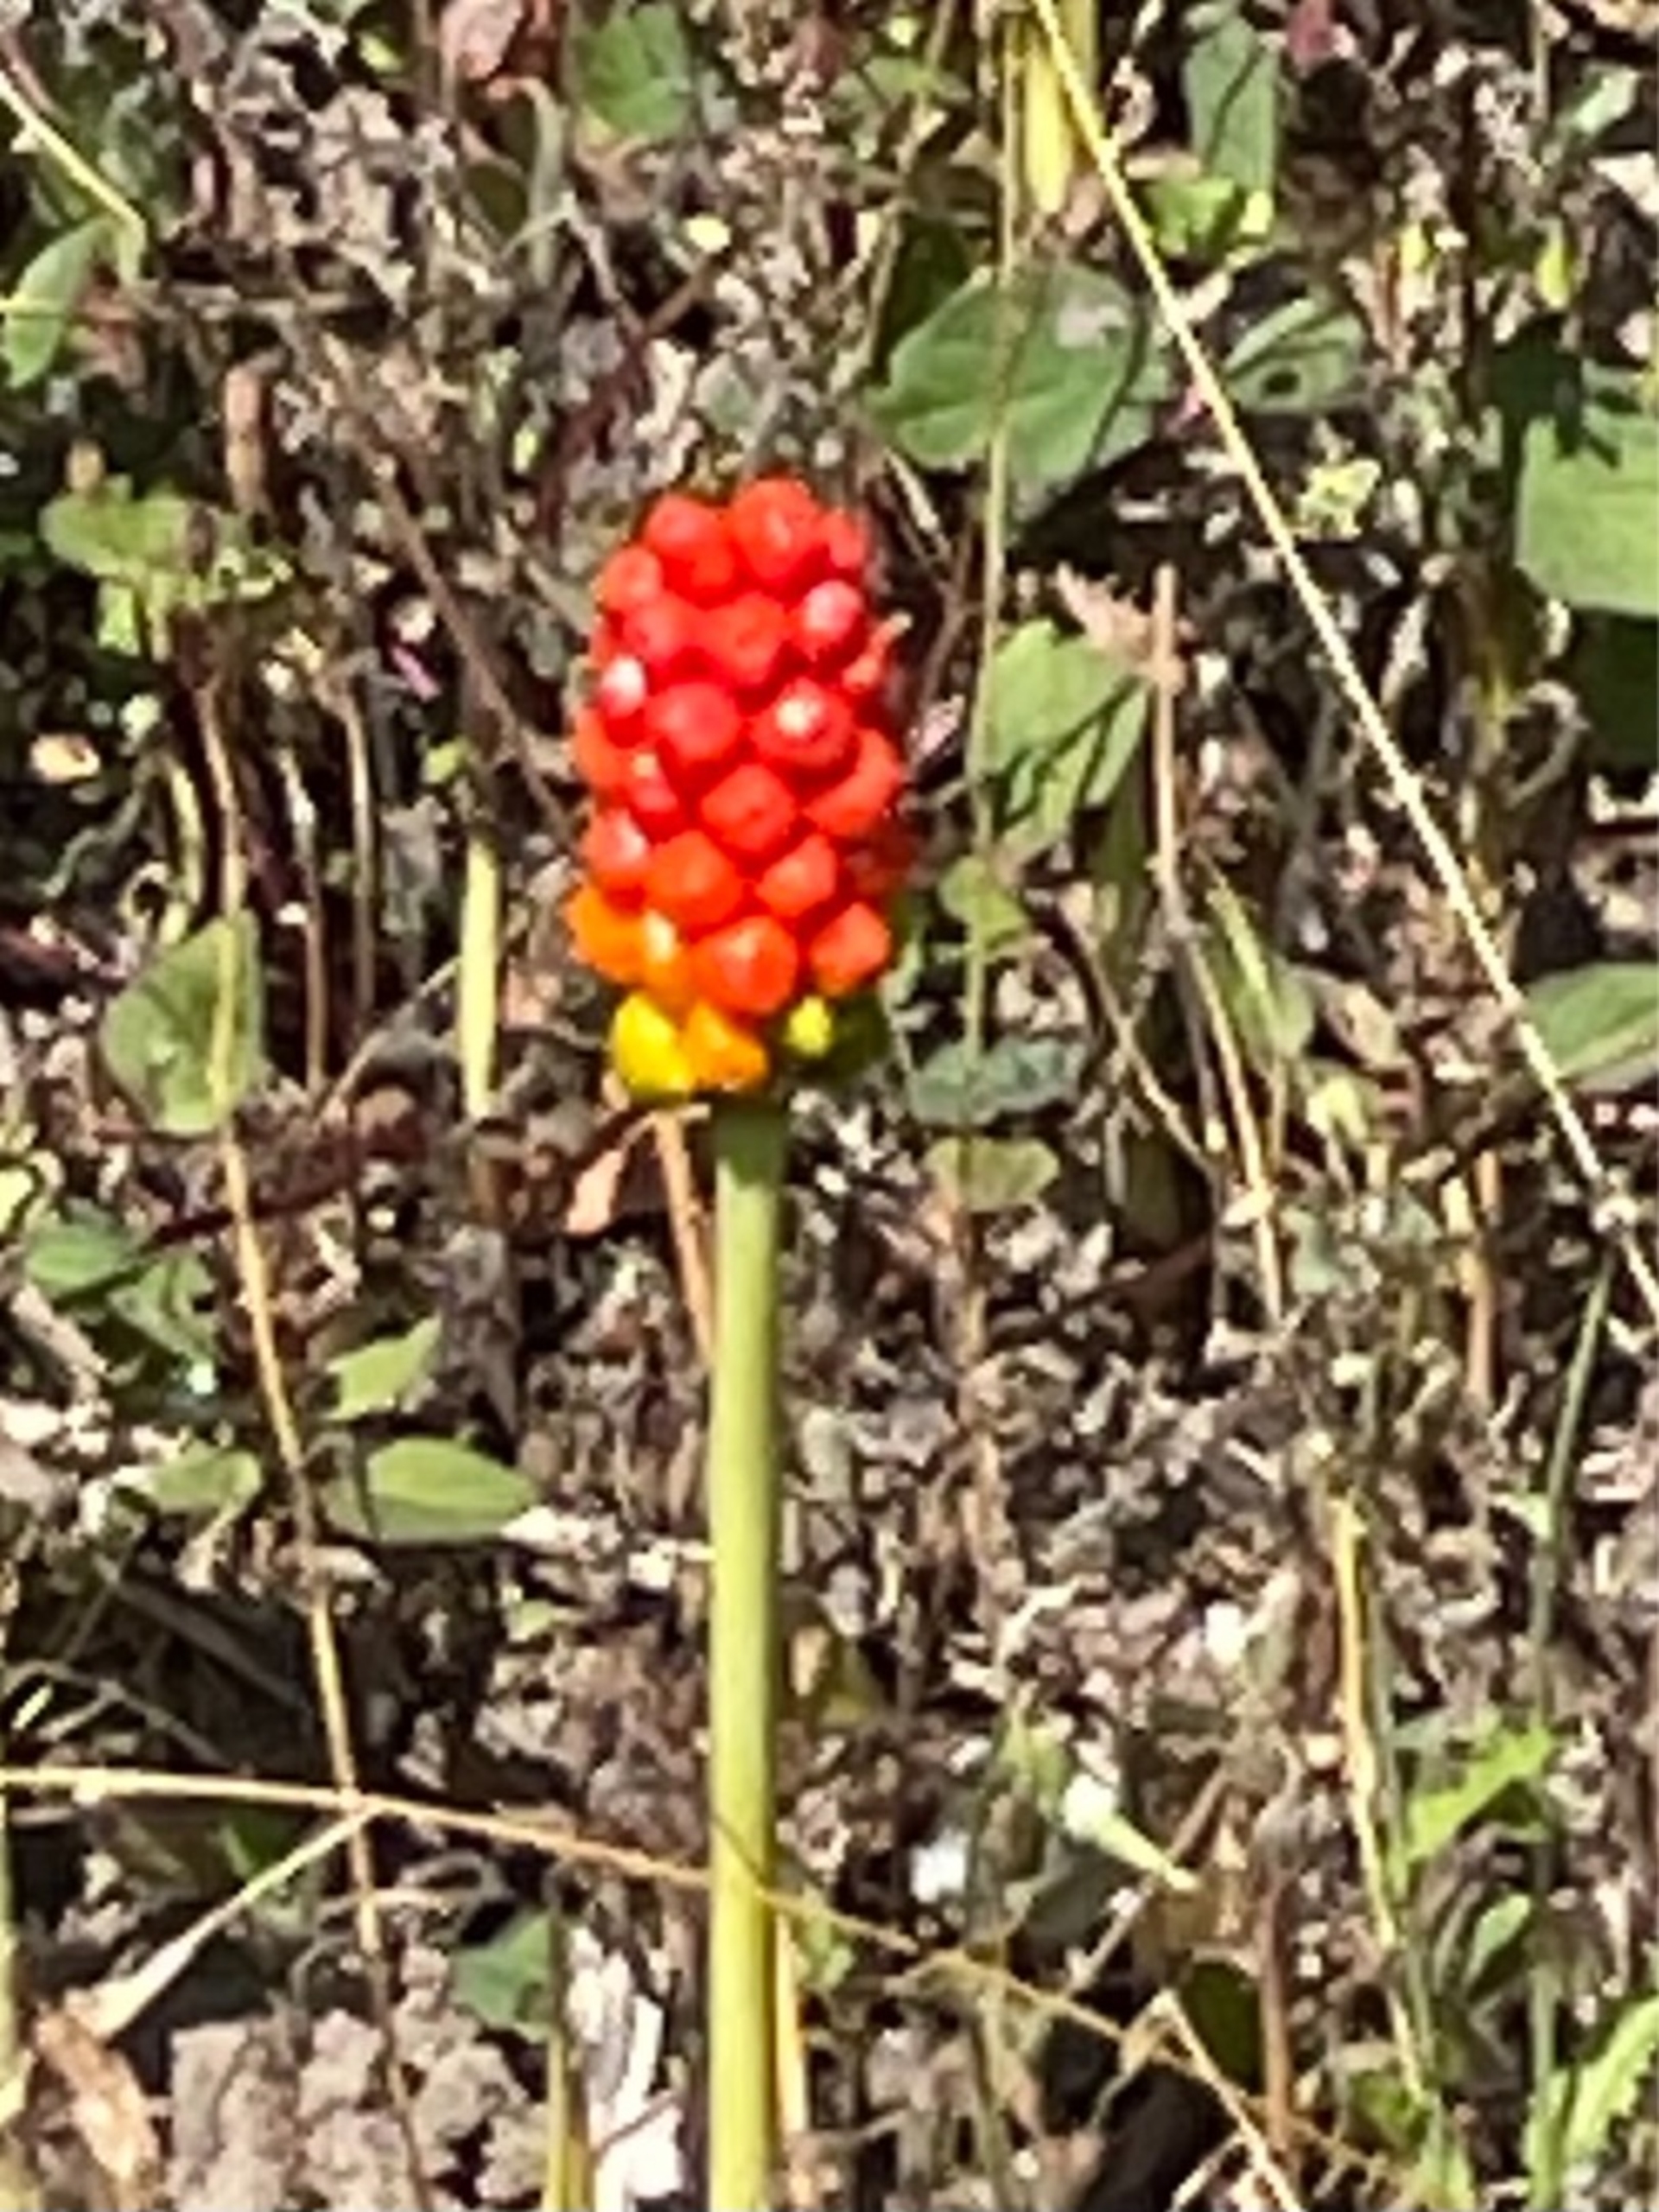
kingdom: Plantae
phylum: Tracheophyta
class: Liliopsida
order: Alismatales
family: Araceae
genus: Arum
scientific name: Arum
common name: Arumslægten
